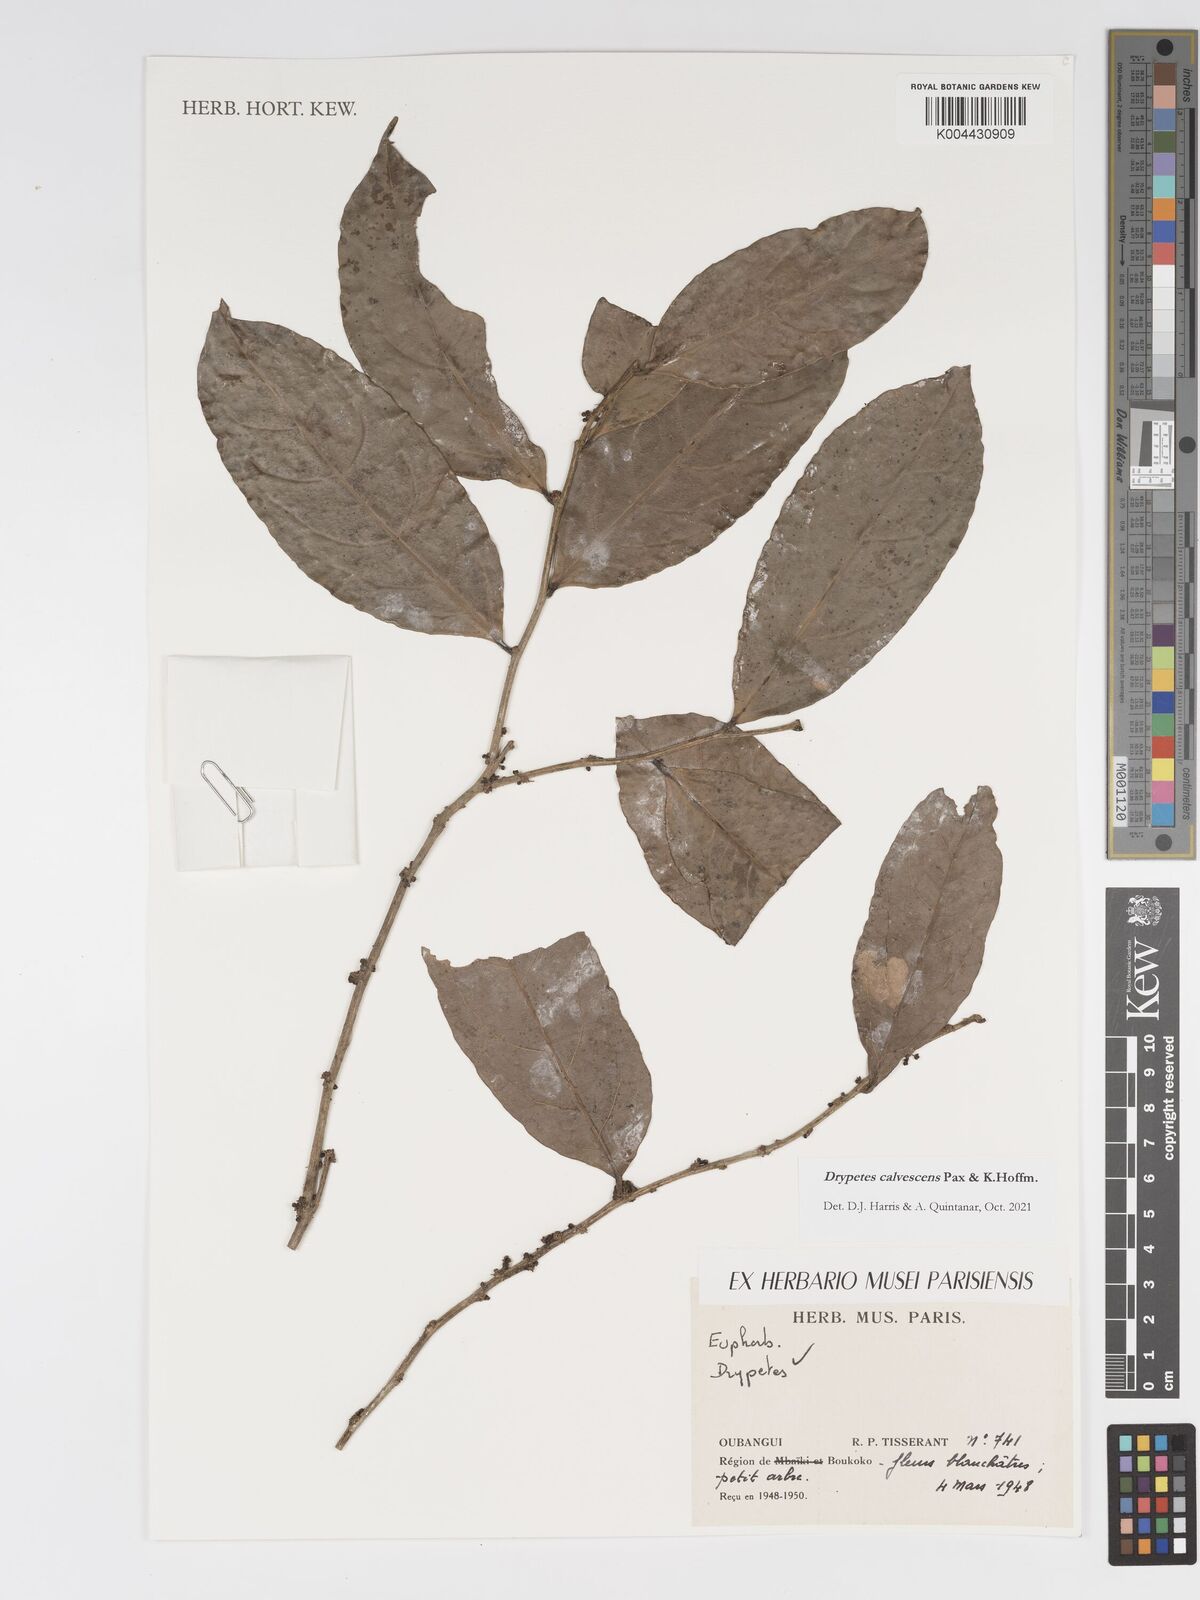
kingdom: Plantae
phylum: Tracheophyta
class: Magnoliopsida
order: Malpighiales
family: Putranjivaceae
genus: Drypetes
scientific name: Drypetes calvescens
